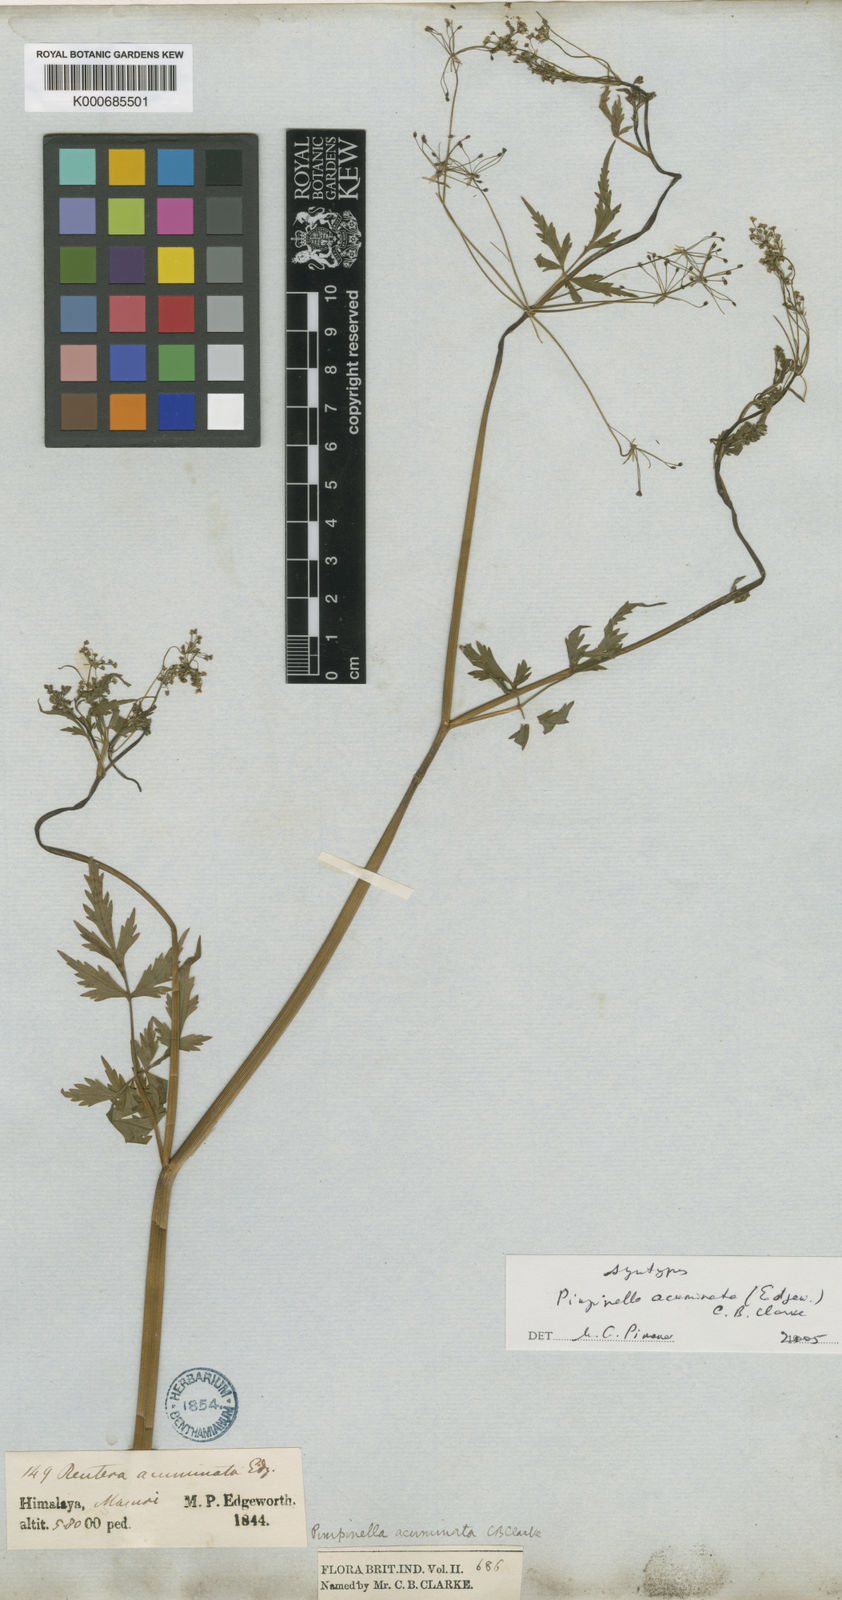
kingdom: Plantae
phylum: Tracheophyta
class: Magnoliopsida
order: Apiales
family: Apiaceae
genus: Pimpinella
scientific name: Pimpinella acuminata
